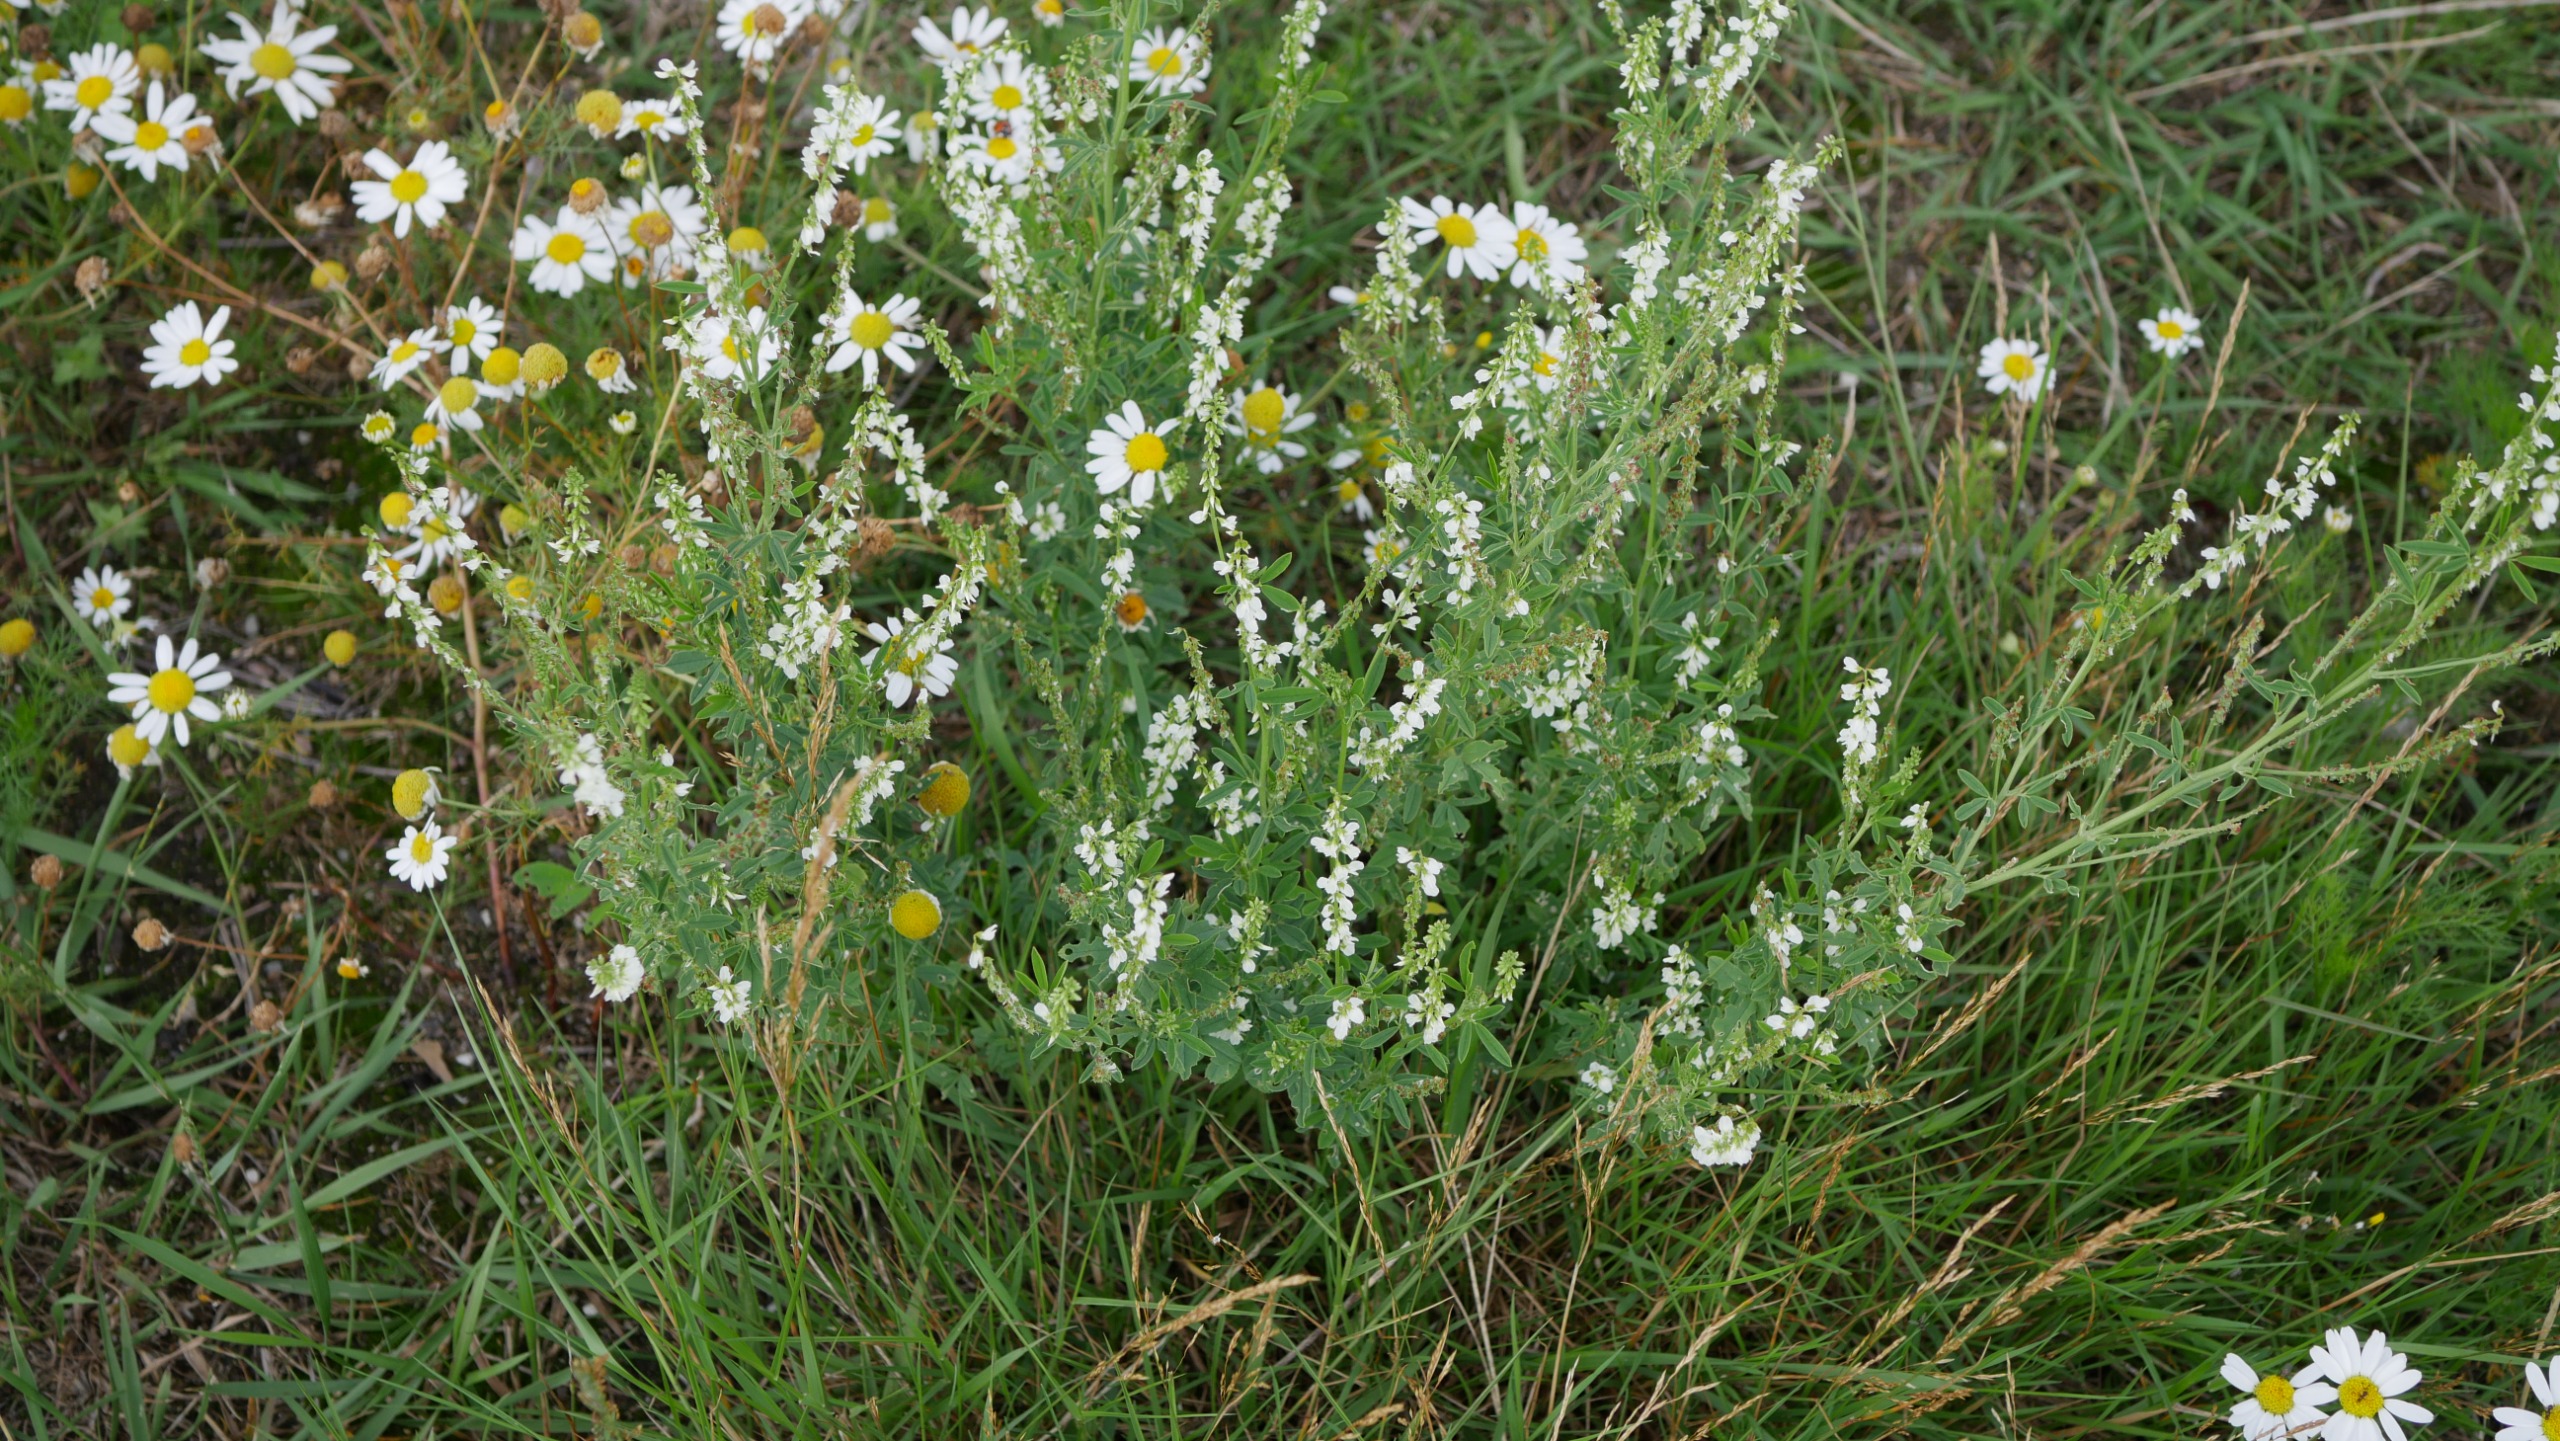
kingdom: Plantae
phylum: Tracheophyta
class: Magnoliopsida
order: Fabales
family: Fabaceae
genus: Melilotus
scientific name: Melilotus albus
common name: Hvid stenkløver
